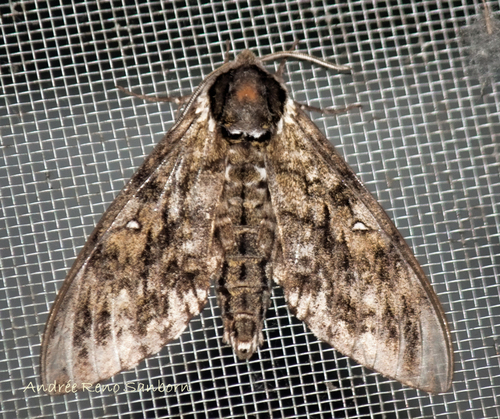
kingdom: Animalia
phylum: Arthropoda
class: Insecta
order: Lepidoptera
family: Sphingidae
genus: Ceratomia
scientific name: Ceratomia undulosa
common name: Waved sphinx
